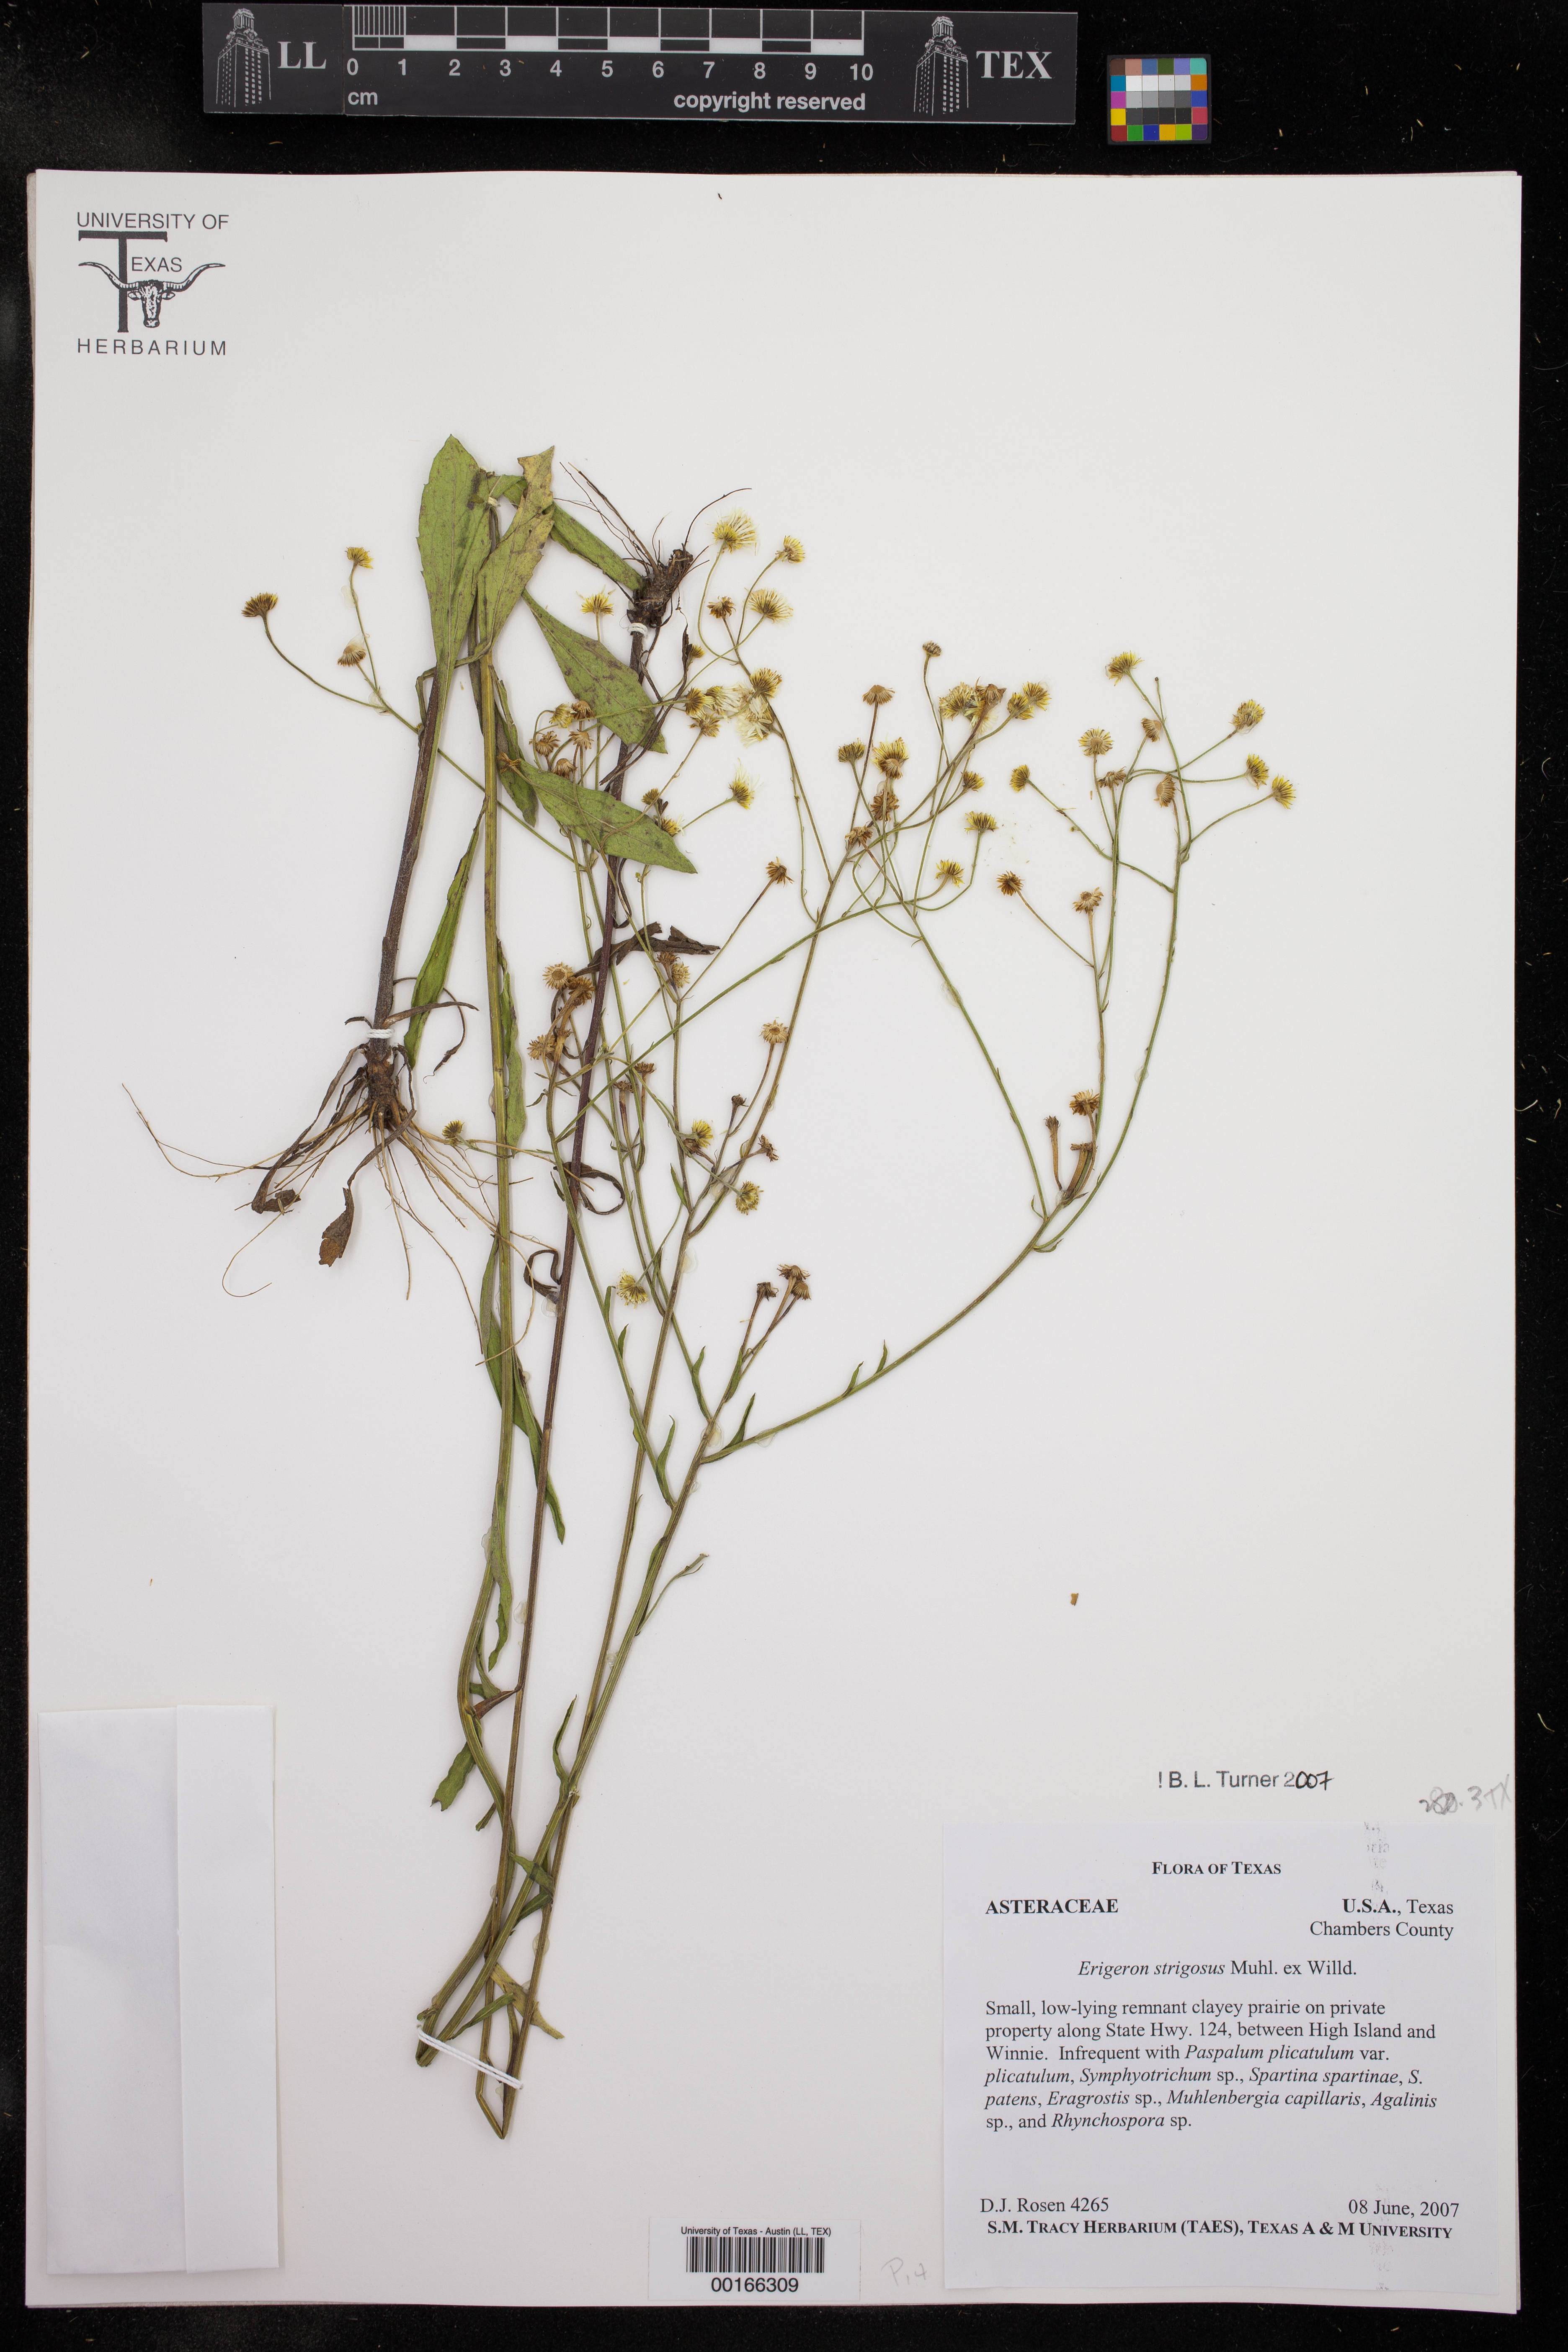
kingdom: Plantae
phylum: Tracheophyta
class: Magnoliopsida
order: Asterales
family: Asteraceae
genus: Erigeron
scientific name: Erigeron strigosus
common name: Common eastern fleabane
